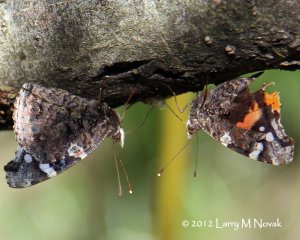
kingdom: Animalia
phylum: Arthropoda
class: Insecta
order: Lepidoptera
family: Nymphalidae
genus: Vanessa
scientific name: Vanessa atalanta
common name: Red Admiral
